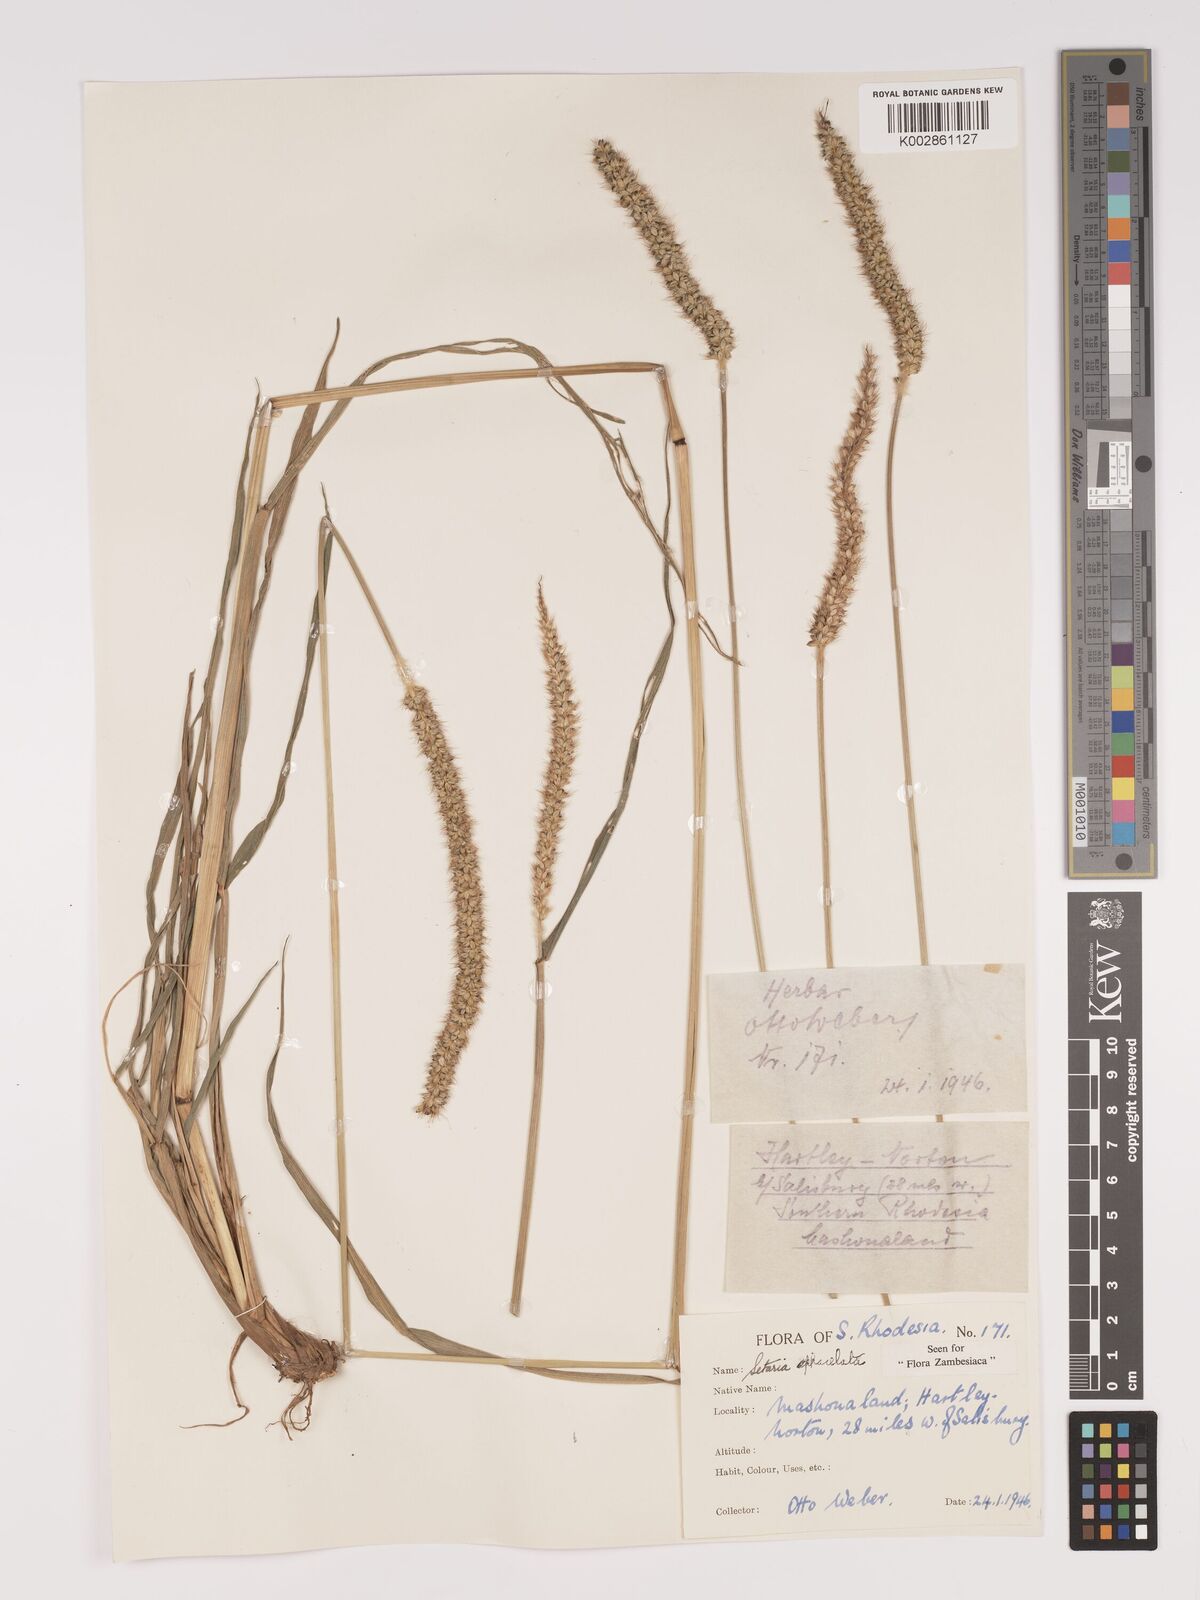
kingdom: Plantae
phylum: Tracheophyta
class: Liliopsida
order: Poales
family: Poaceae
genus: Setaria
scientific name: Setaria sphacelata
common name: African bristlegrass
